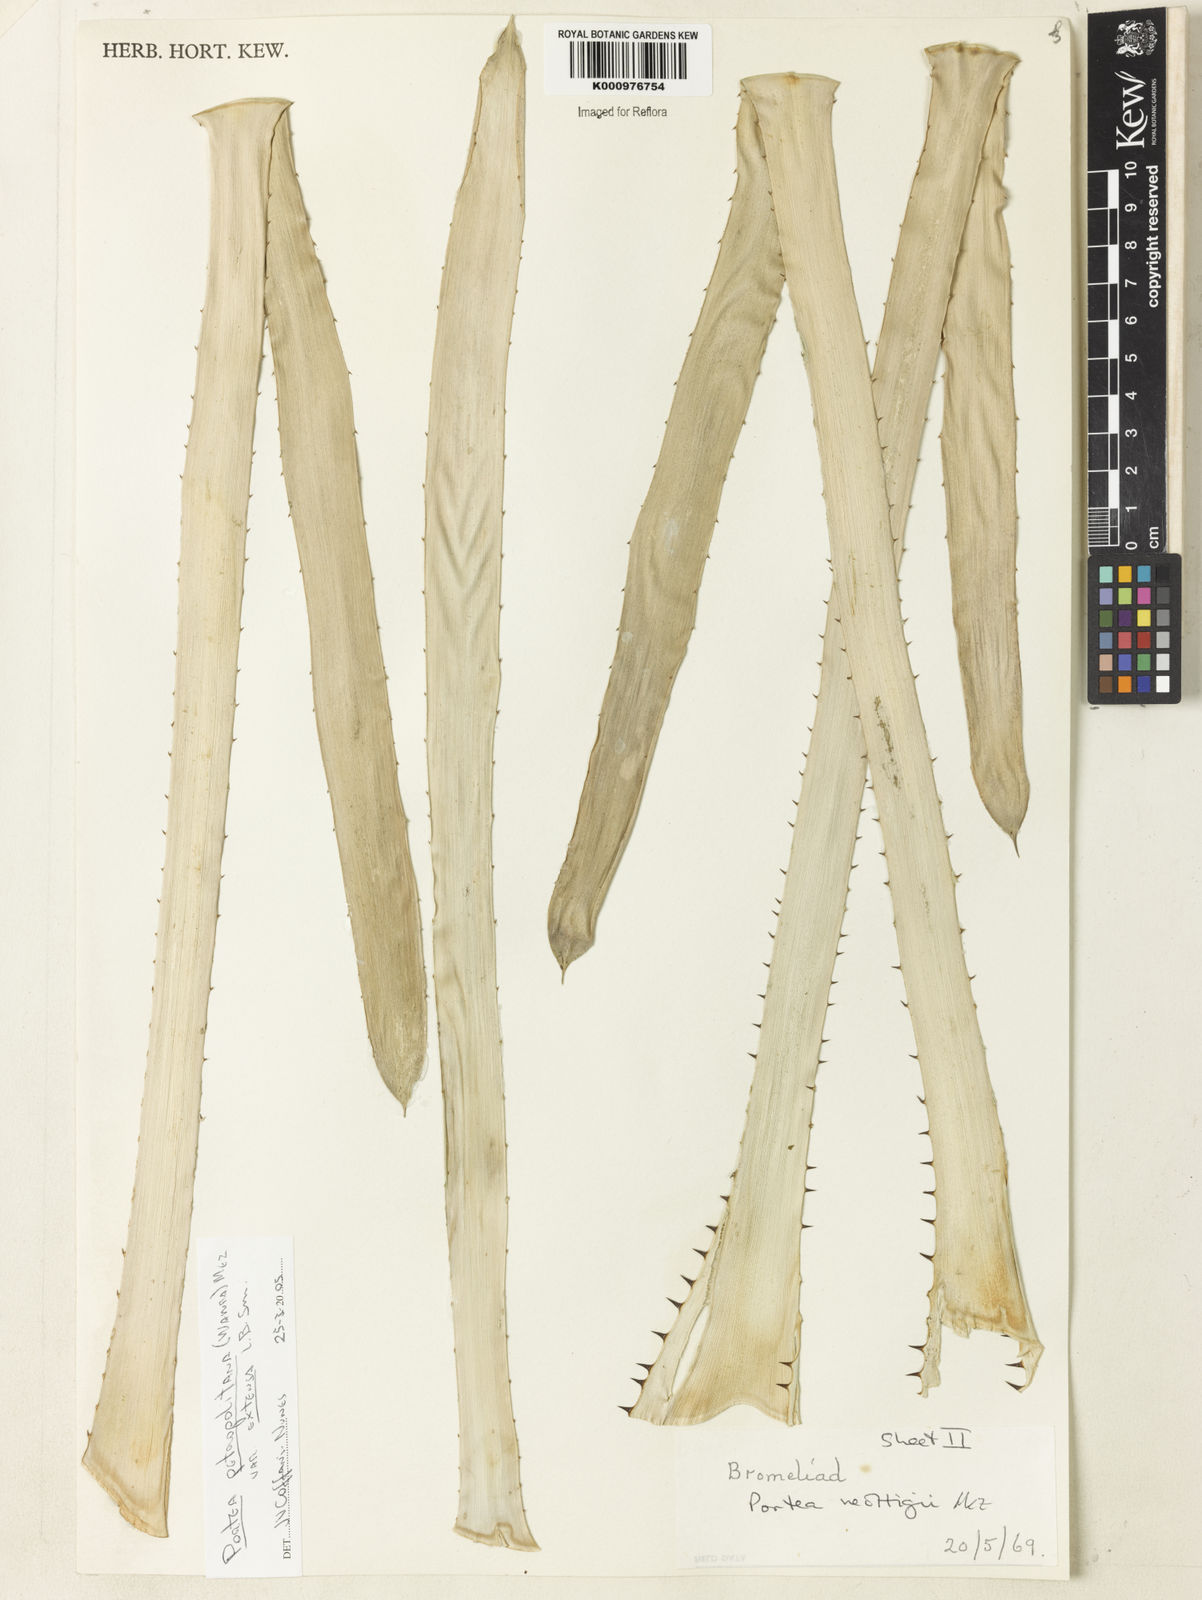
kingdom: Plantae
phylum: Tracheophyta
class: Liliopsida
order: Poales
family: Bromeliaceae
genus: Portea
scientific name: Portea petropolitana
